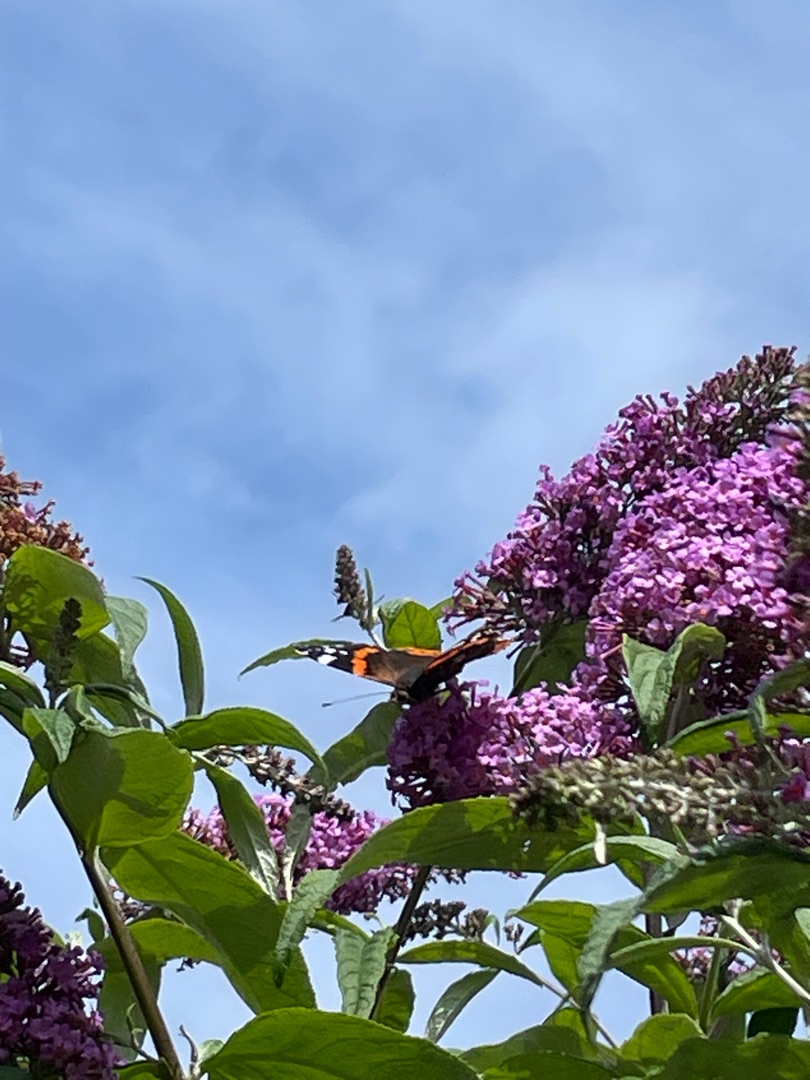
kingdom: Animalia
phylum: Arthropoda
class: Insecta
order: Lepidoptera
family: Nymphalidae
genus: Vanessa
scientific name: Vanessa atalanta
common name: Admiral
